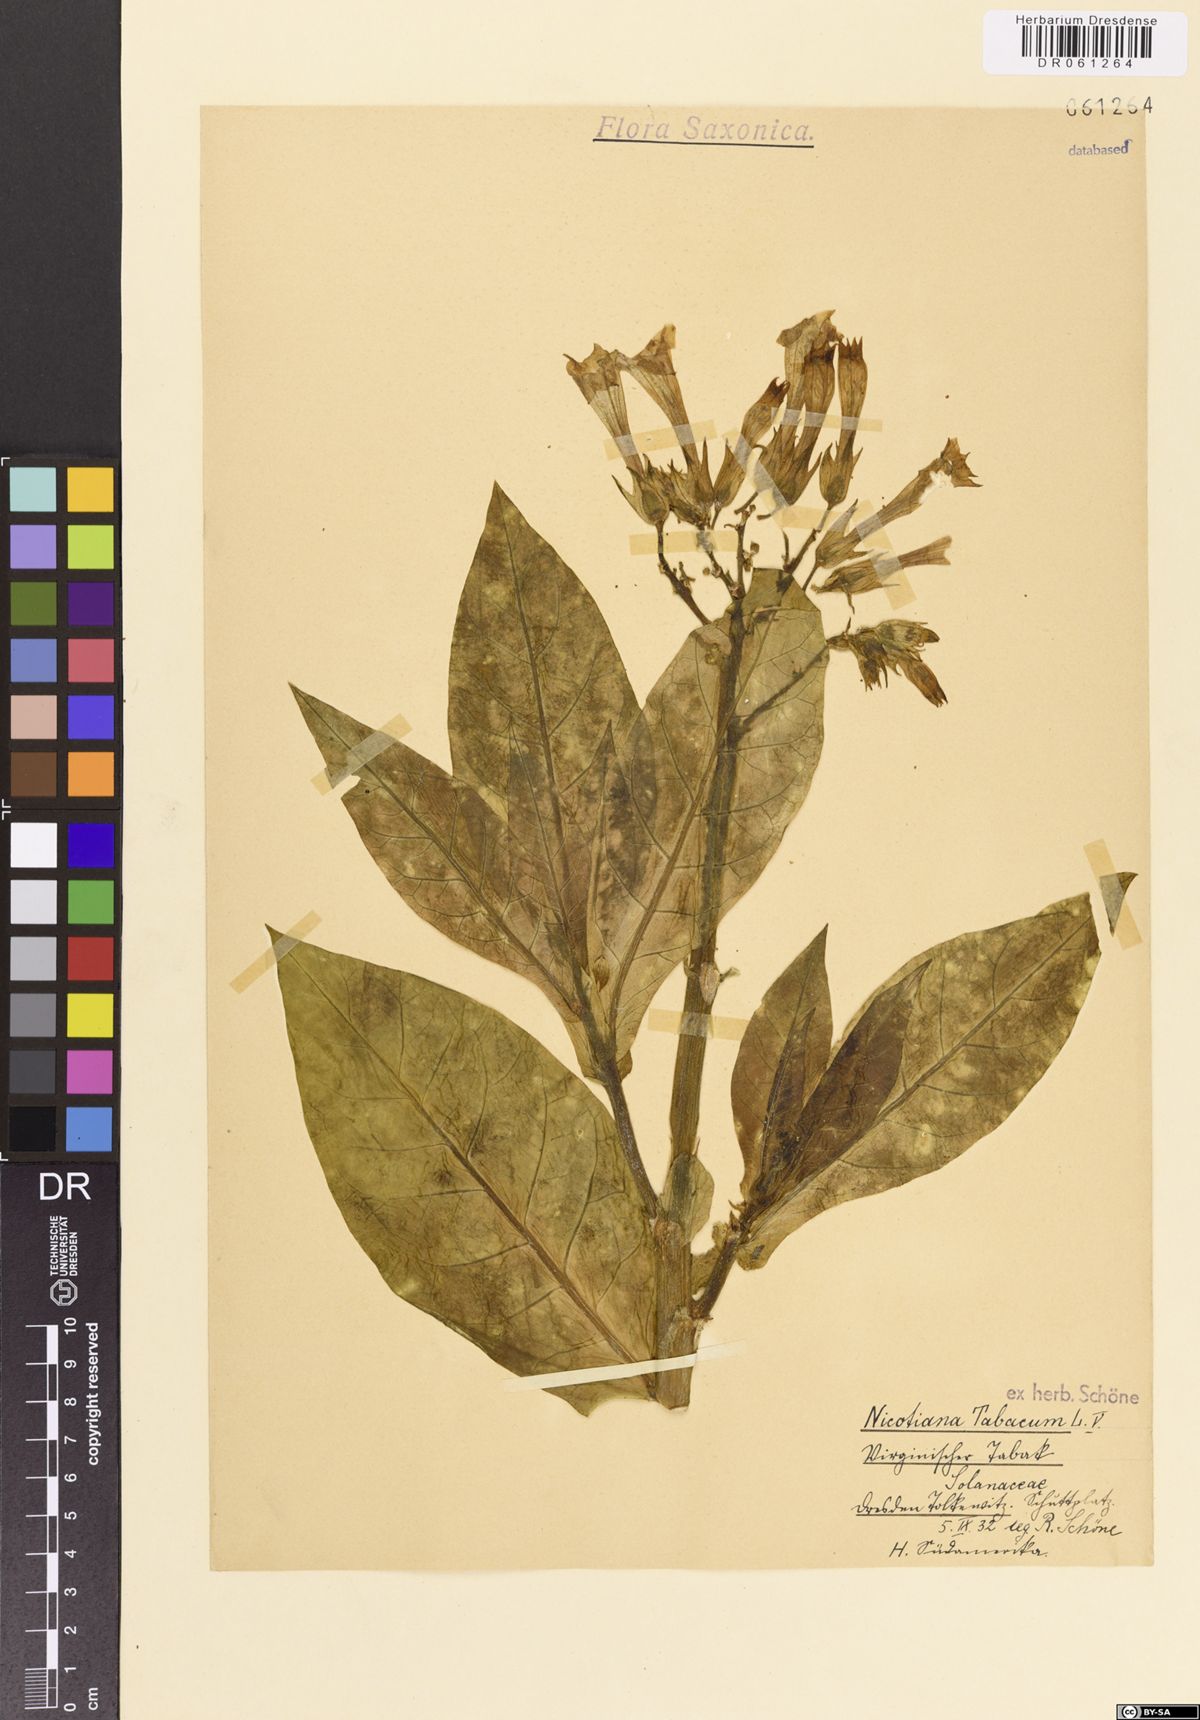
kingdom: Plantae
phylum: Tracheophyta
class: Magnoliopsida
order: Solanales
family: Solanaceae
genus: Nicotiana
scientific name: Nicotiana tabacum
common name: Tobacco
